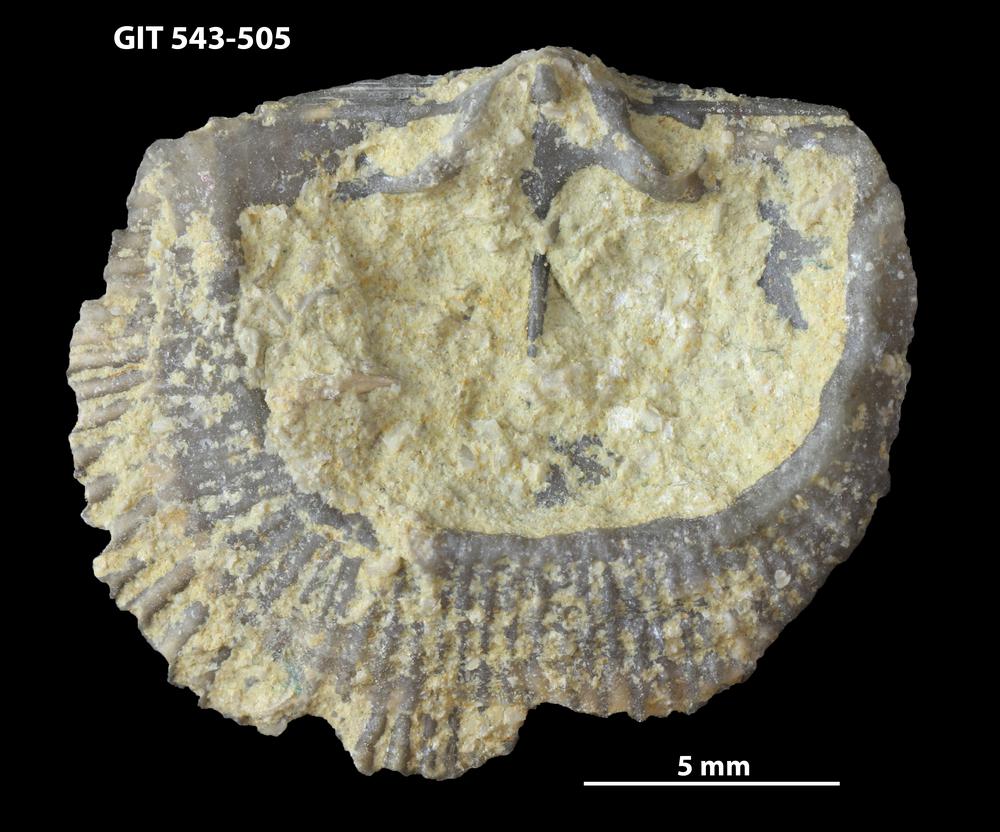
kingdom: Animalia
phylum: Brachiopoda
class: Rhynchonellata
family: Clitambonitidae
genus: Clitambonites
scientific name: Clitambonites
